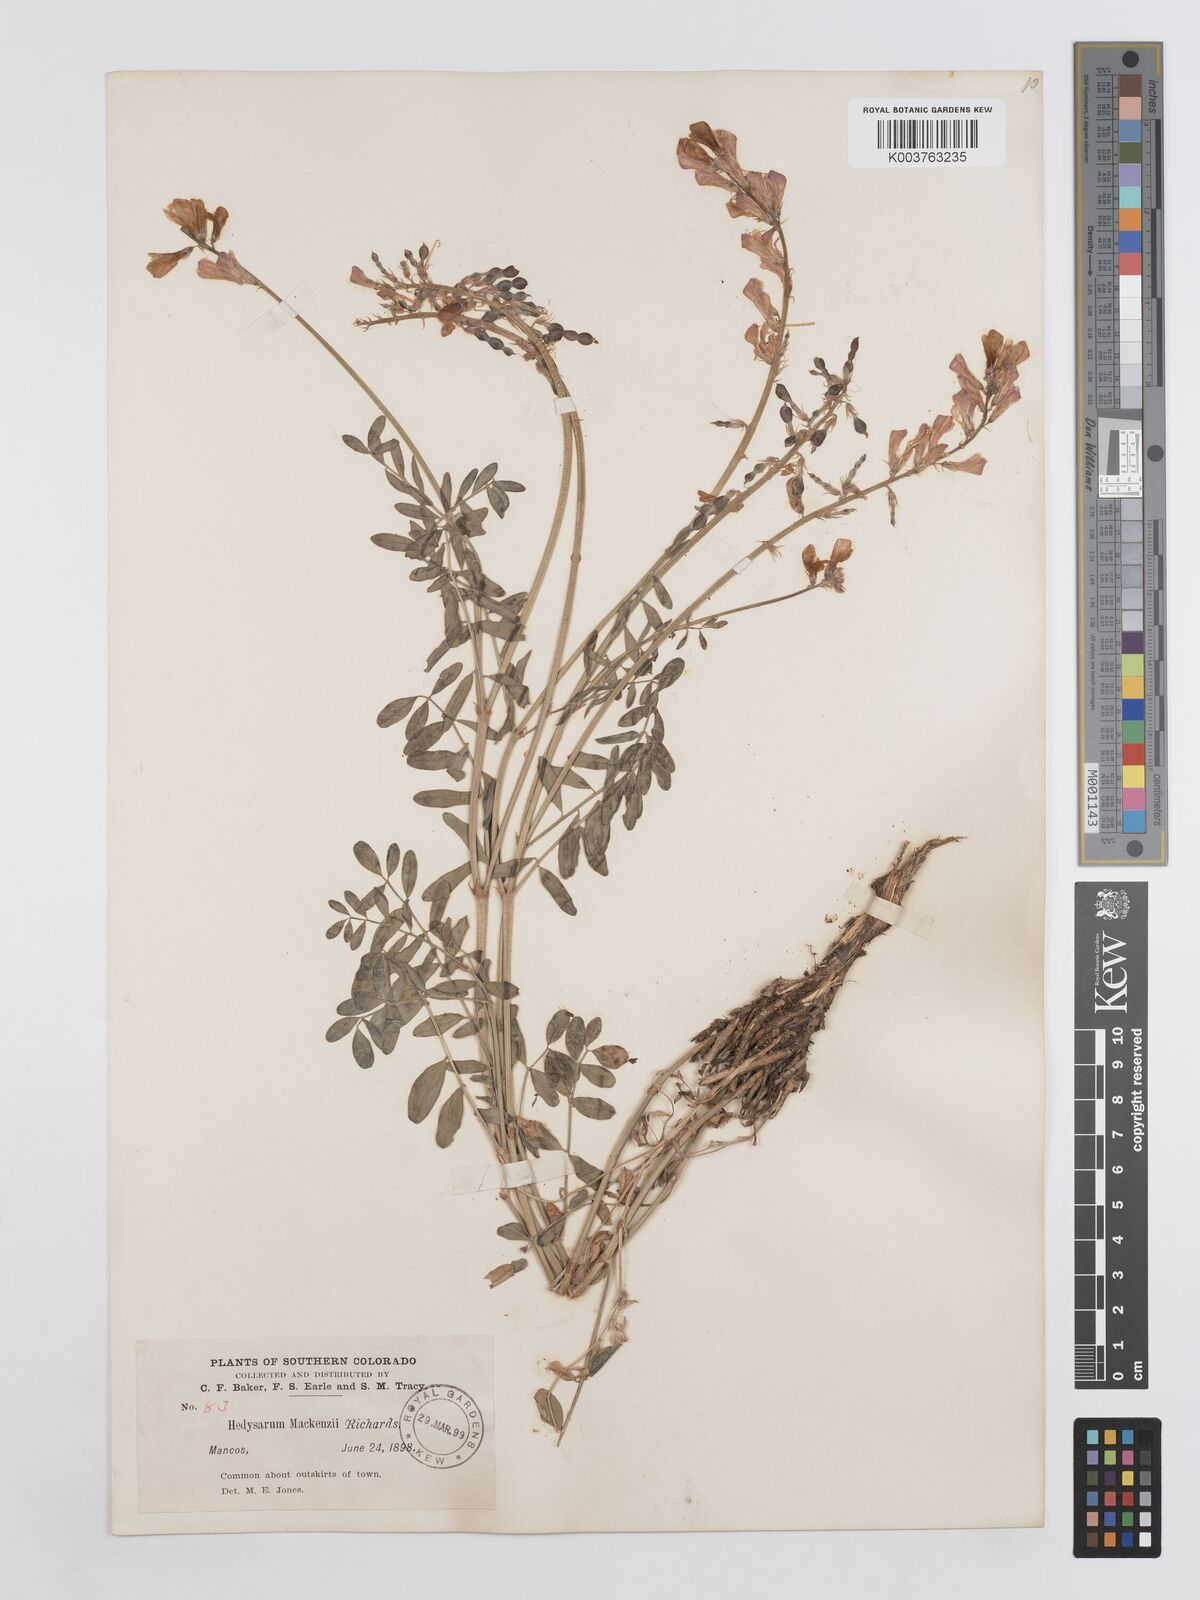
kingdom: Plantae
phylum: Tracheophyta
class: Magnoliopsida
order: Fabales
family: Fabaceae
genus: Hedysarum
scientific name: Hedysarum boreale
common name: Northern sweet-vetch
